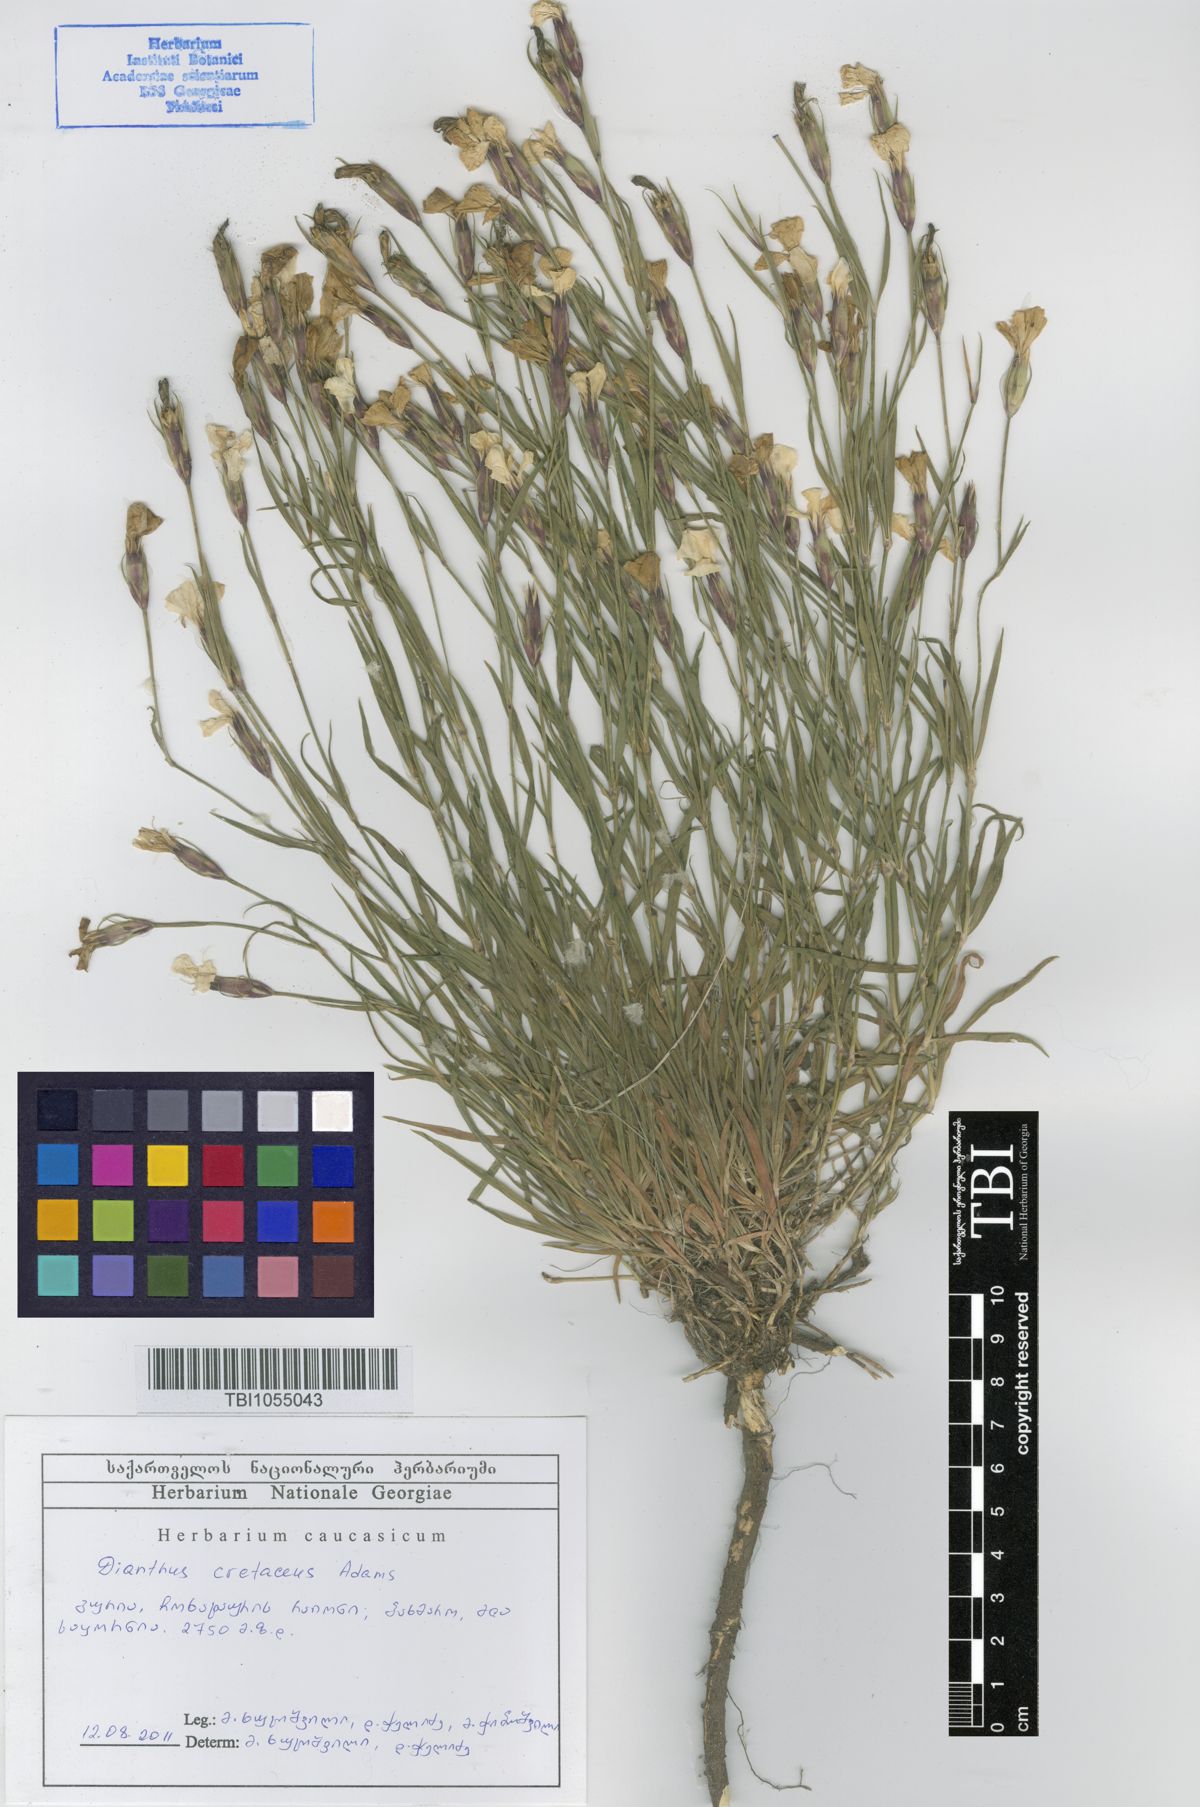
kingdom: Plantae
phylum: Tracheophyta
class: Magnoliopsida
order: Caryophyllales
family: Caryophyllaceae
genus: Dianthus
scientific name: Dianthus cretaceus
